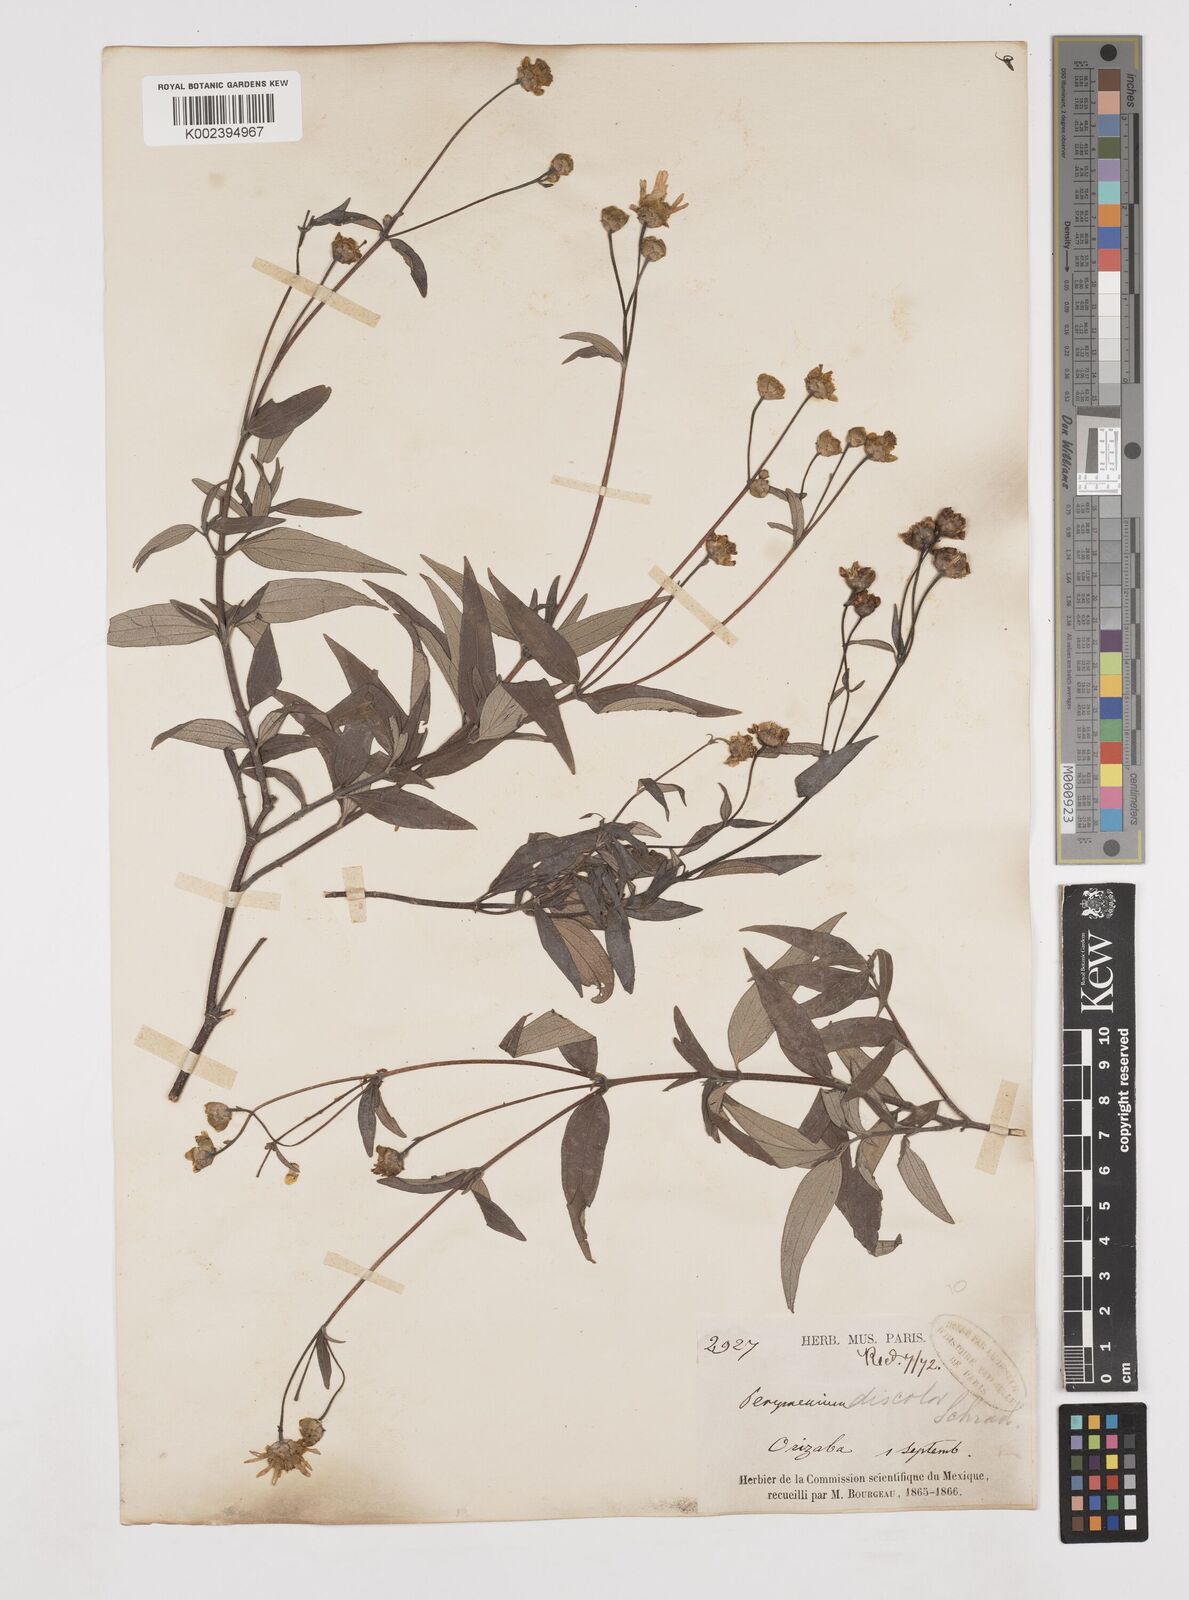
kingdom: Plantae
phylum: Tracheophyta
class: Magnoliopsida
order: Asterales
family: Asteraceae
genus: Perymenium
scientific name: Perymenium klattianum
